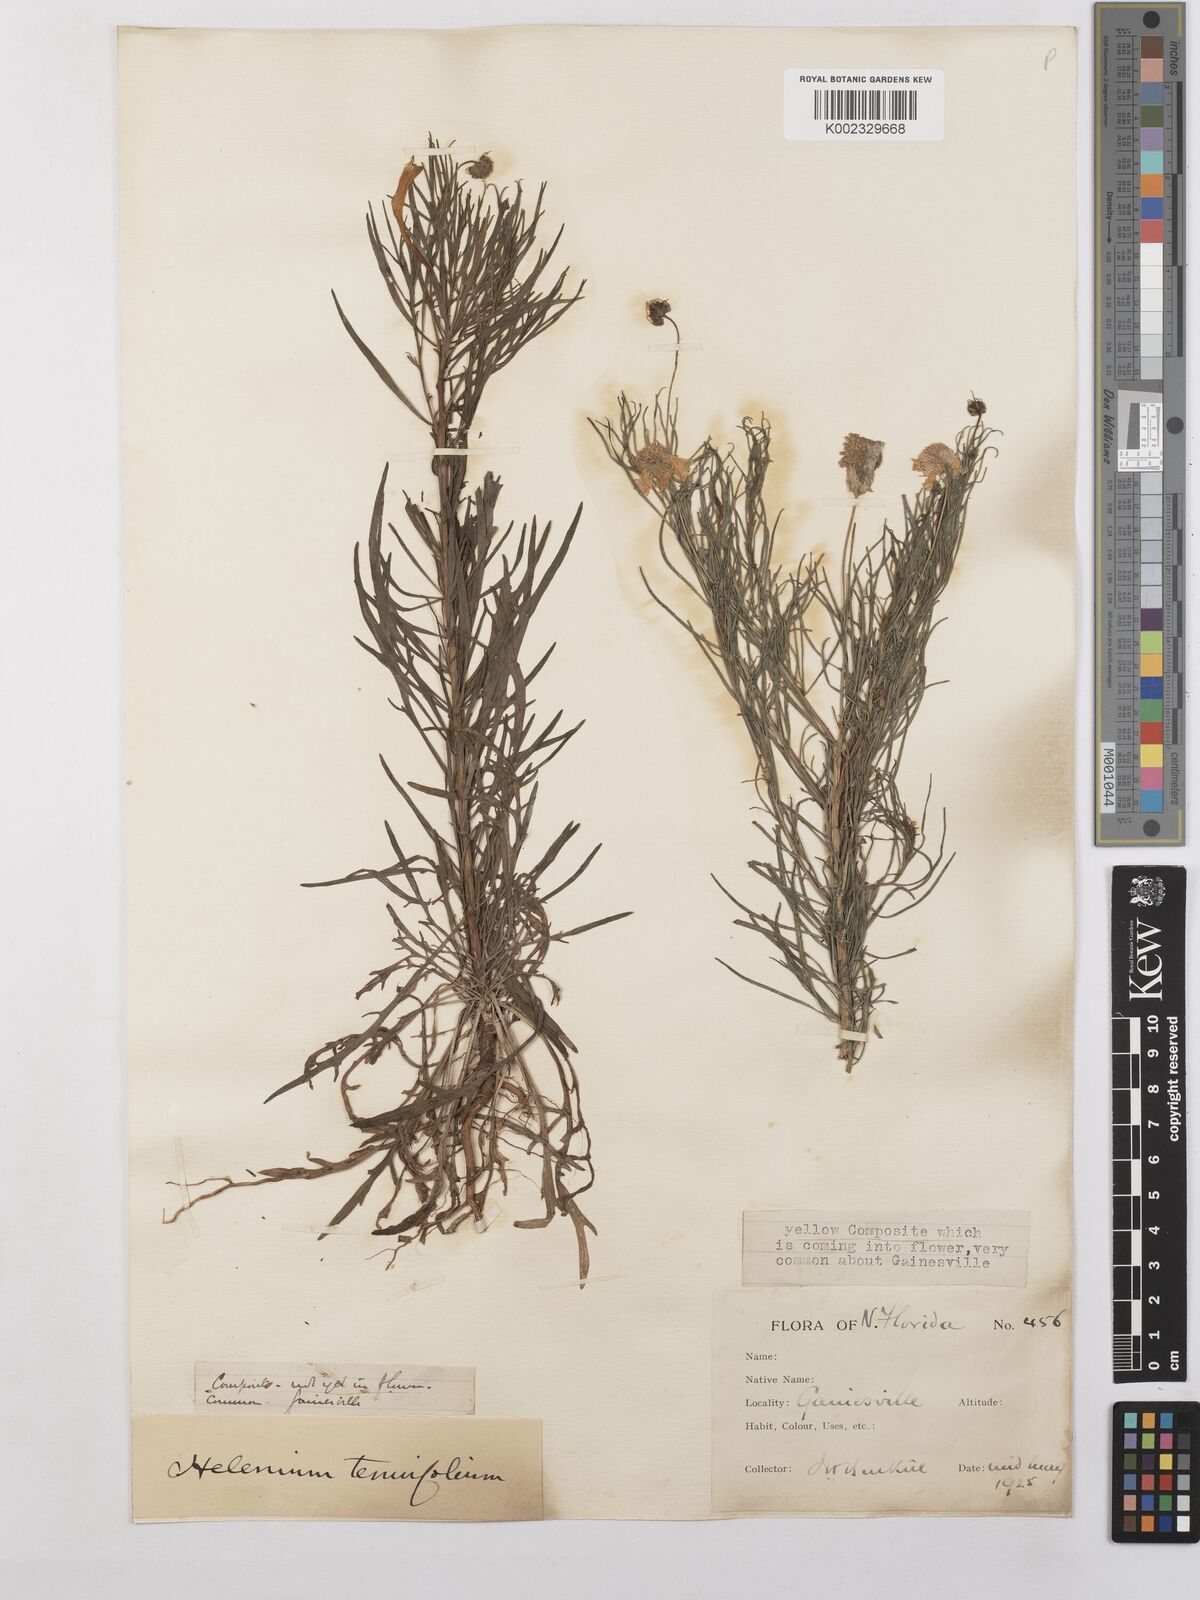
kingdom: Plantae
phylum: Tracheophyta
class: Magnoliopsida
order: Asterales
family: Asteraceae
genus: Helenium
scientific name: Helenium amarum
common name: Bitter sneezeweed
